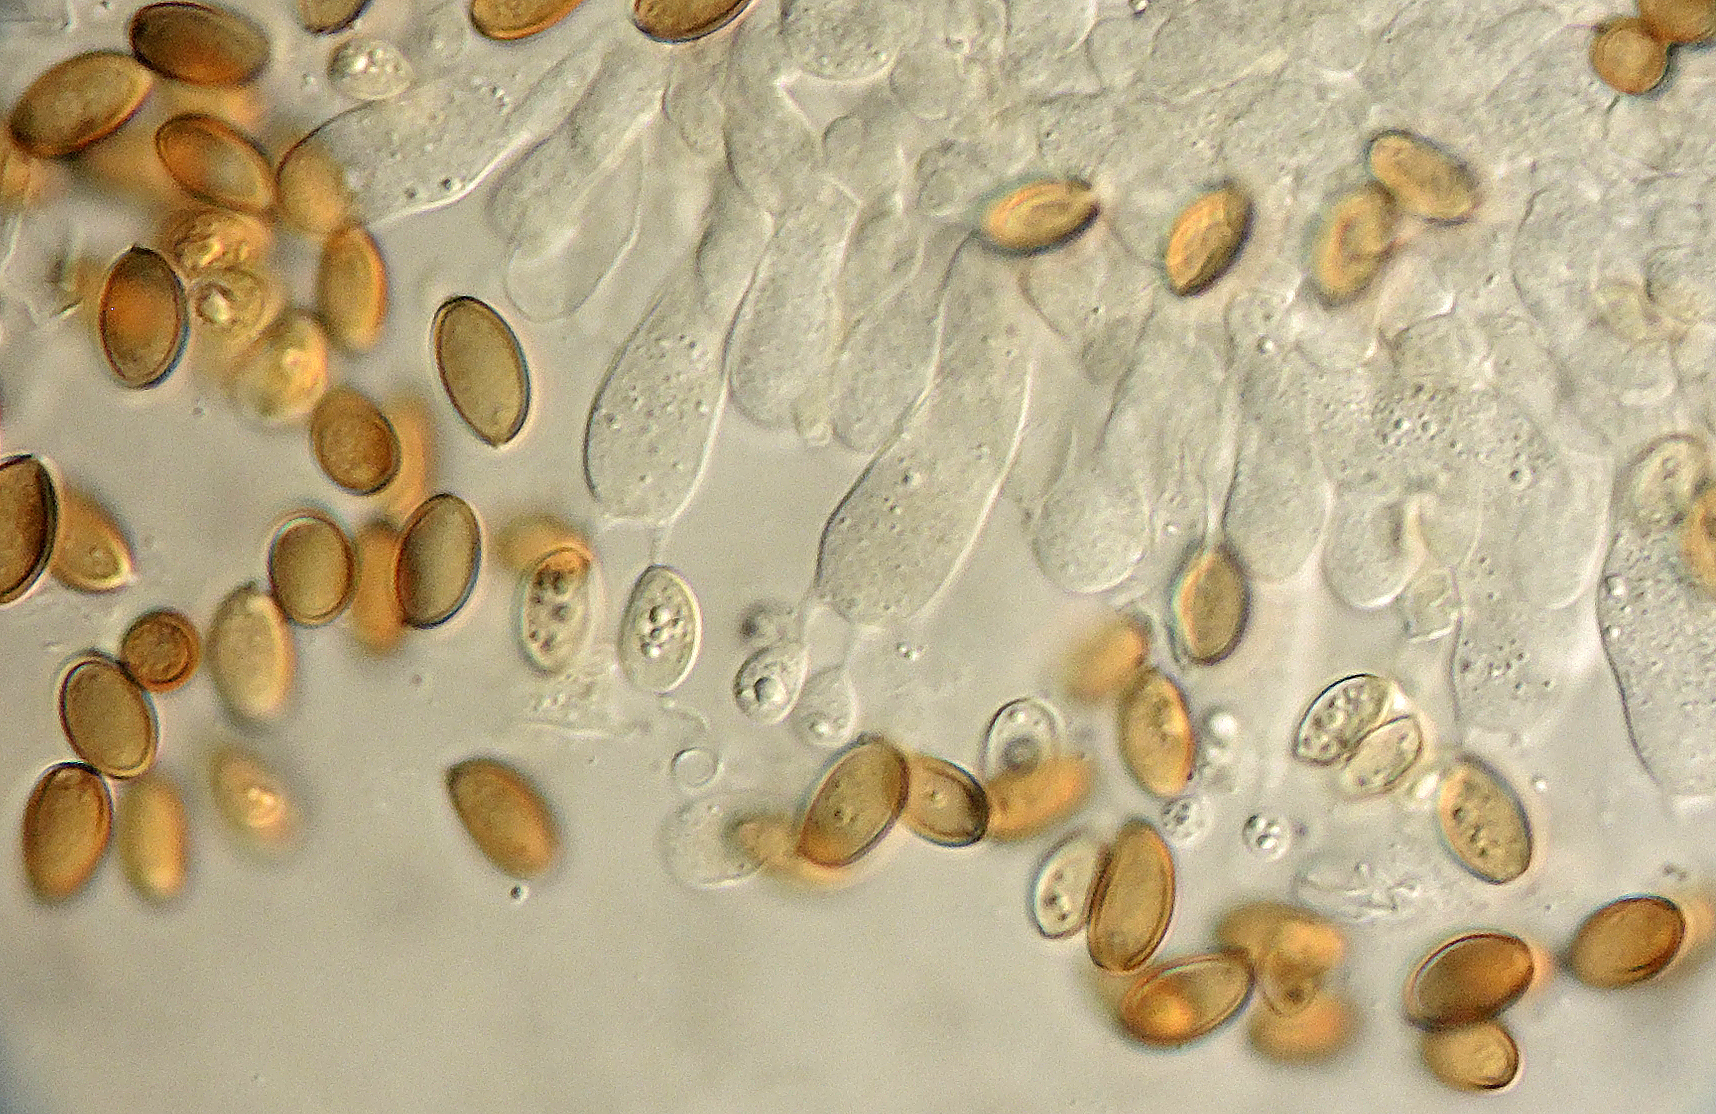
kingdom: Fungi
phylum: Basidiomycota
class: Agaricomycetes
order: Agaricales
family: Strophariaceae
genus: Leratiomyces
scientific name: Leratiomyces laetissimus
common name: mark-bredblad
